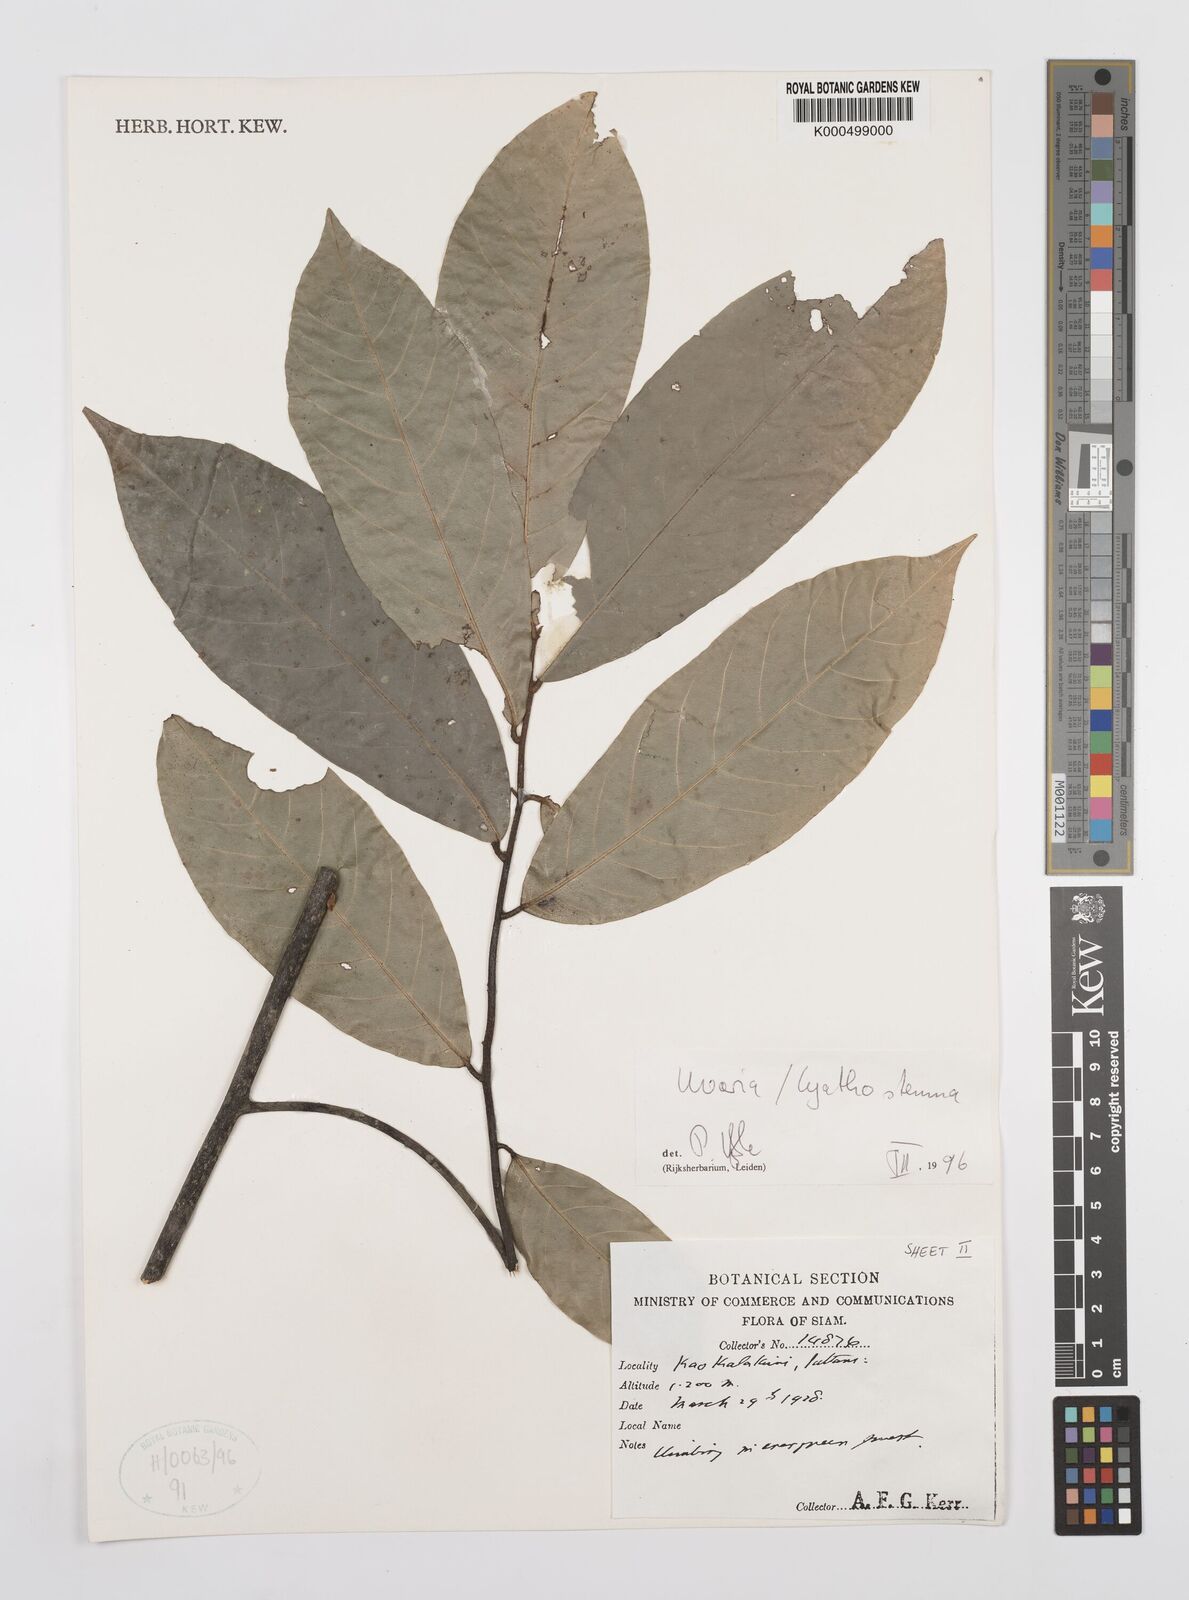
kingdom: Plantae
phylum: Tracheophyta
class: Magnoliopsida
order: Magnoliales
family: Annonaceae
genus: Uvaria
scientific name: Uvaria
